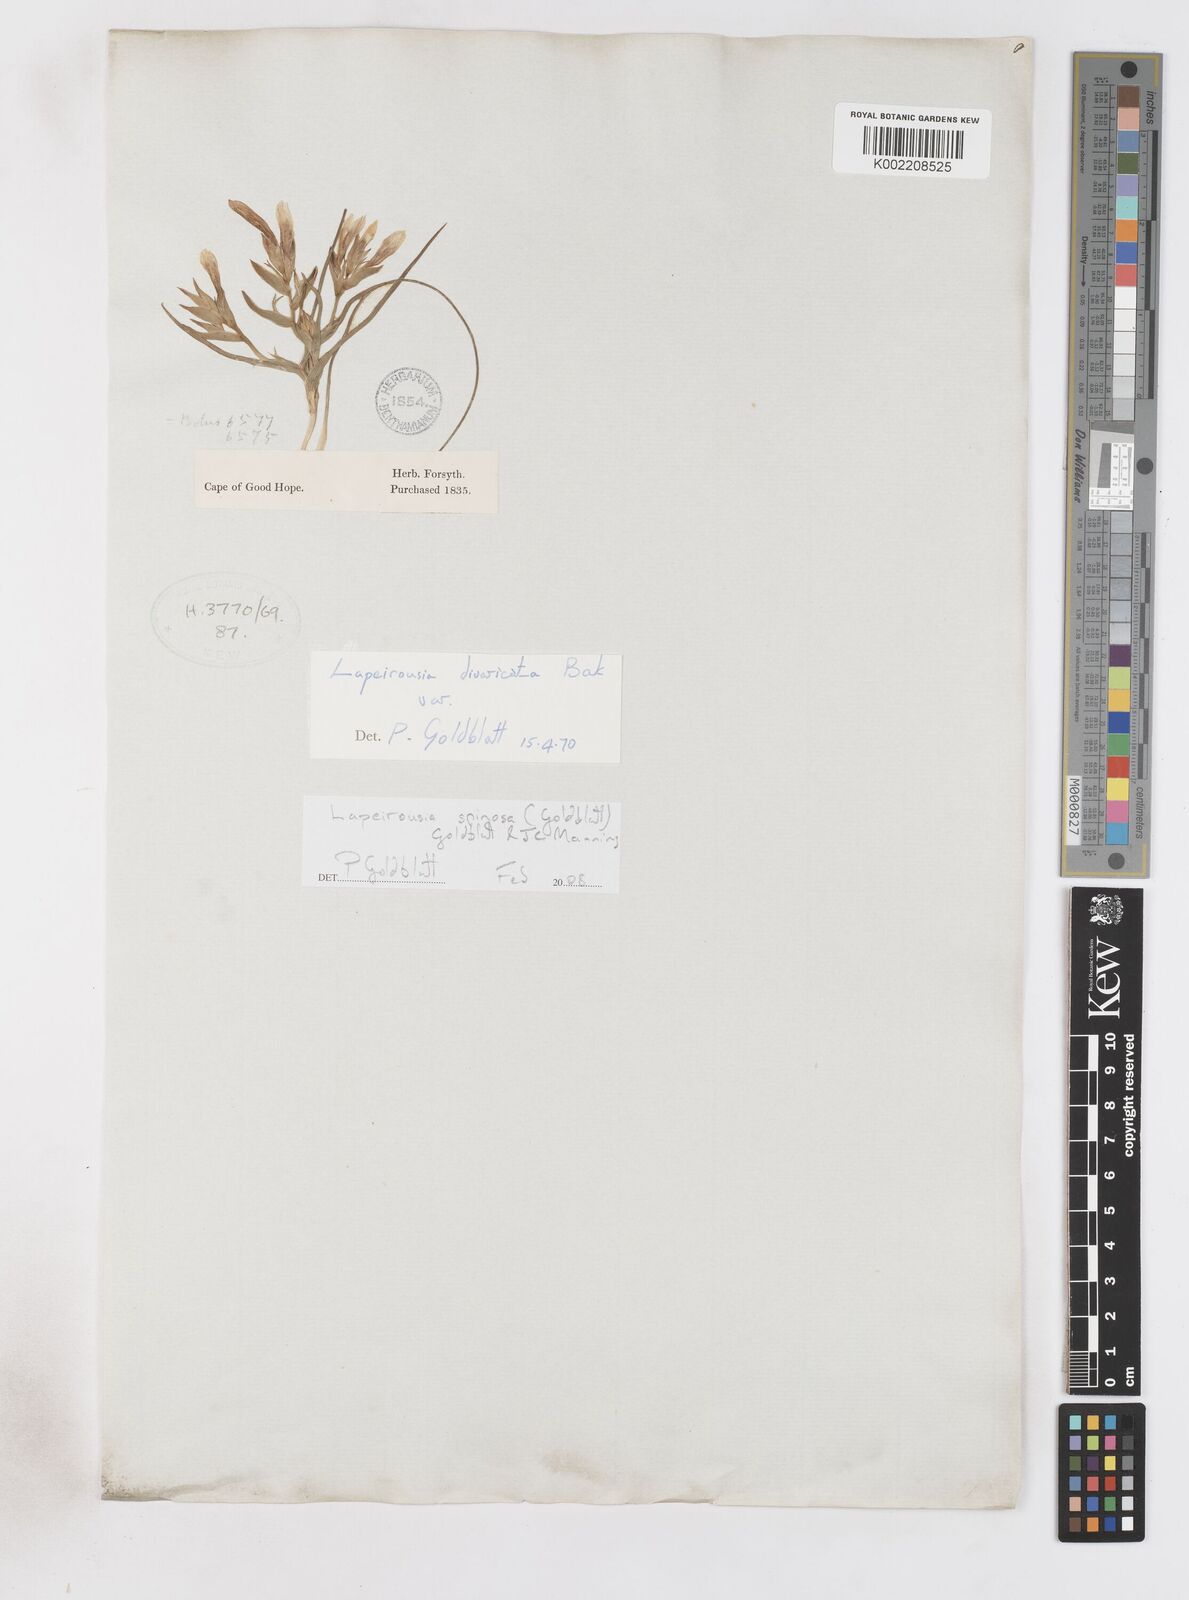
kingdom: Plantae
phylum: Tracheophyta
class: Liliopsida
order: Asparagales
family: Iridaceae
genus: Lapeirousia
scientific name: Lapeirousia spinosa
